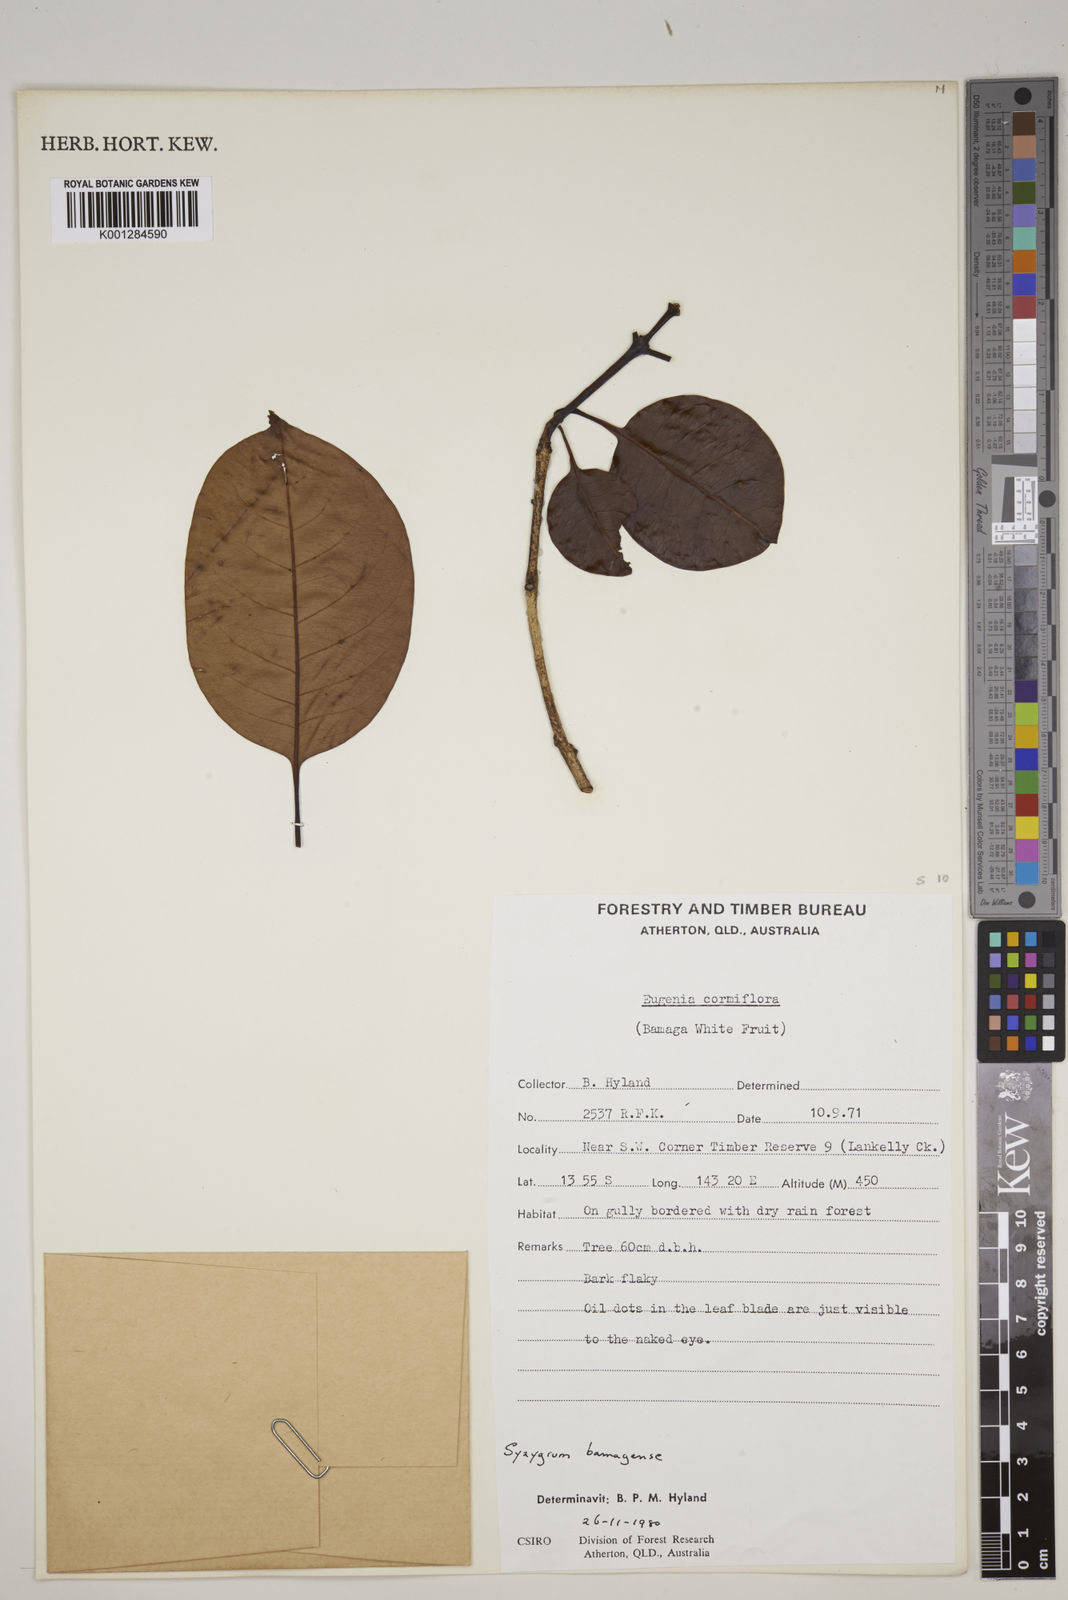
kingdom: Plantae
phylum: Tracheophyta
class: Magnoliopsida
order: Myrtales
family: Myrtaceae
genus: Syzygium
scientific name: Syzygium bamagense
